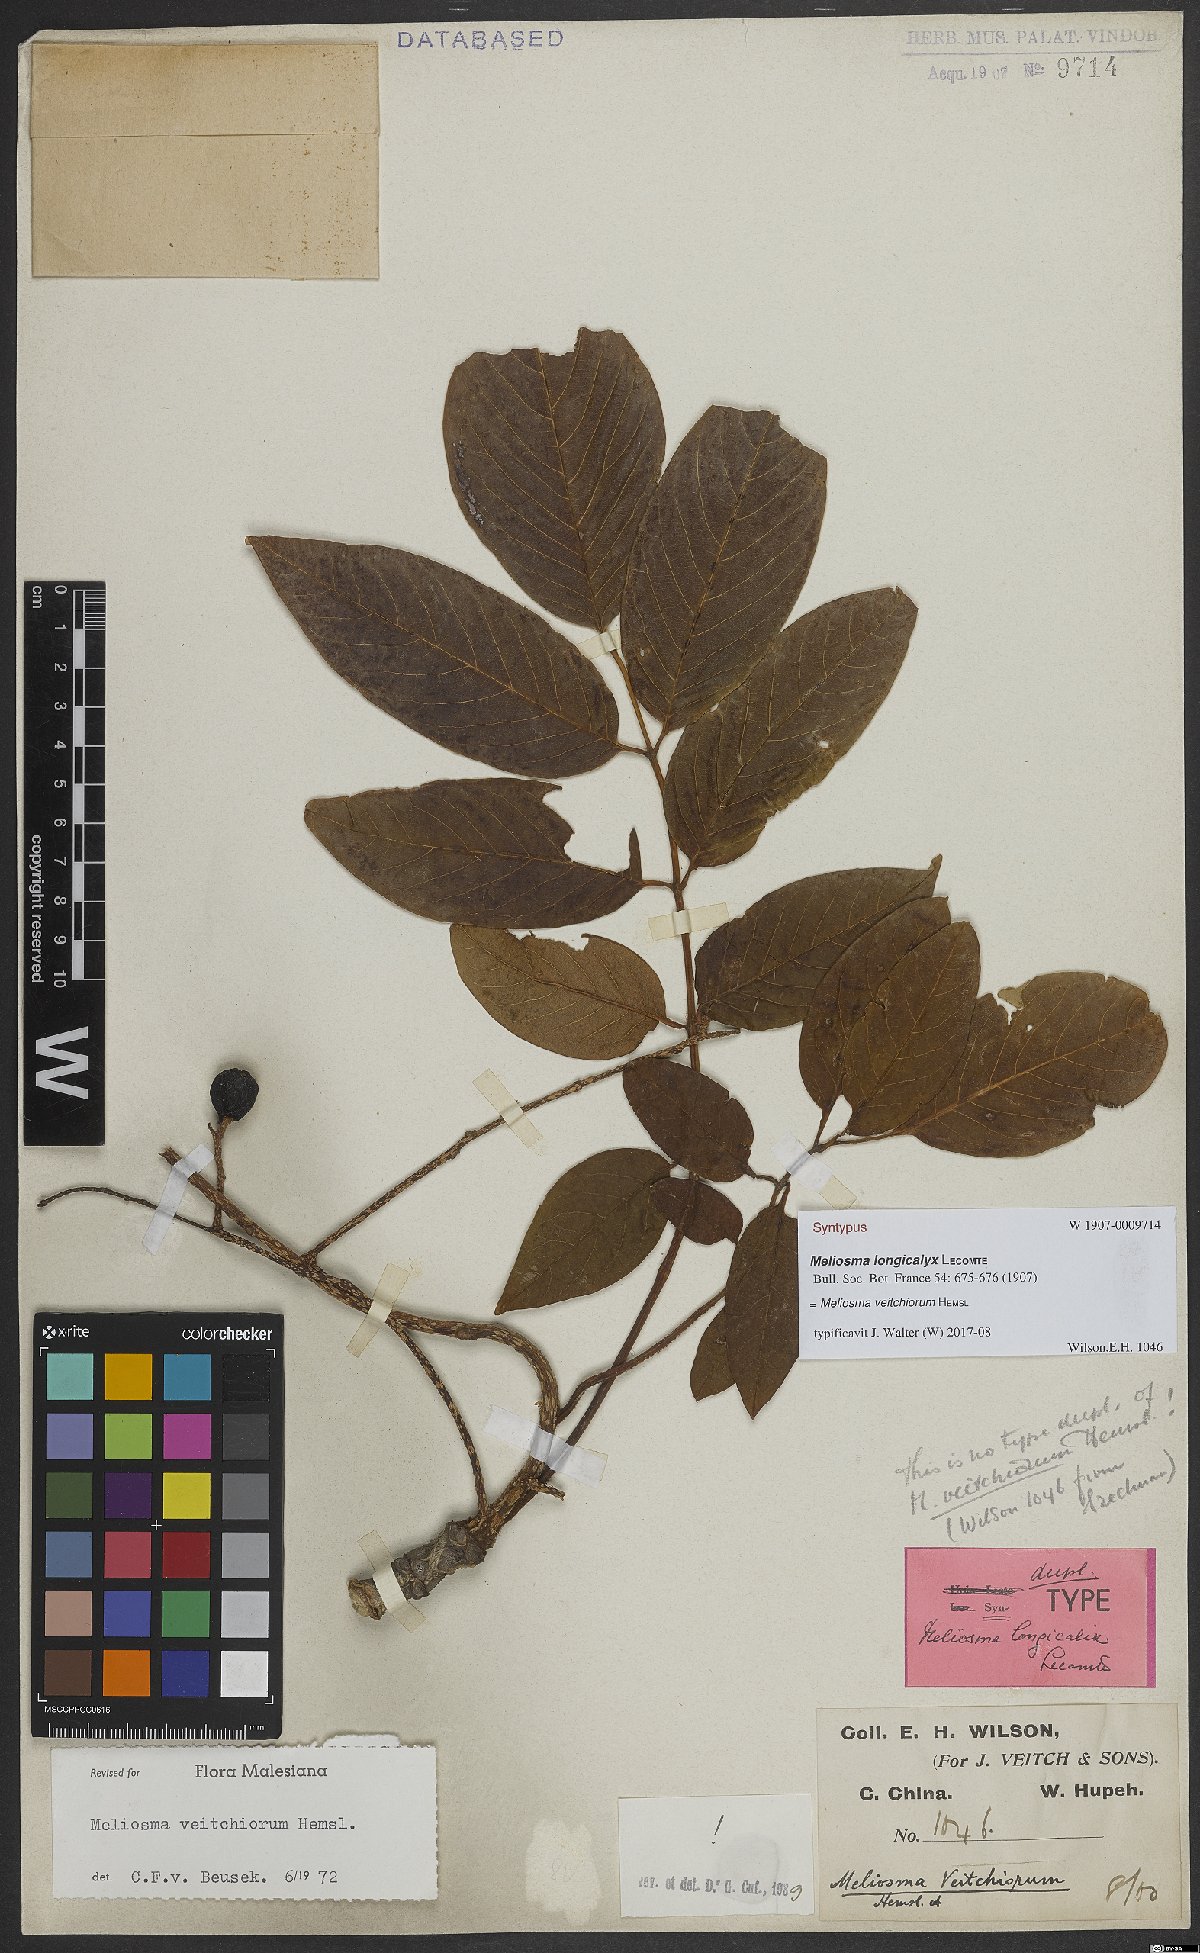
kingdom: Plantae
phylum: Tracheophyta
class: Magnoliopsida
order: Proteales
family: Sabiaceae
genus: Meliosma
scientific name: Meliosma veitchiorum
